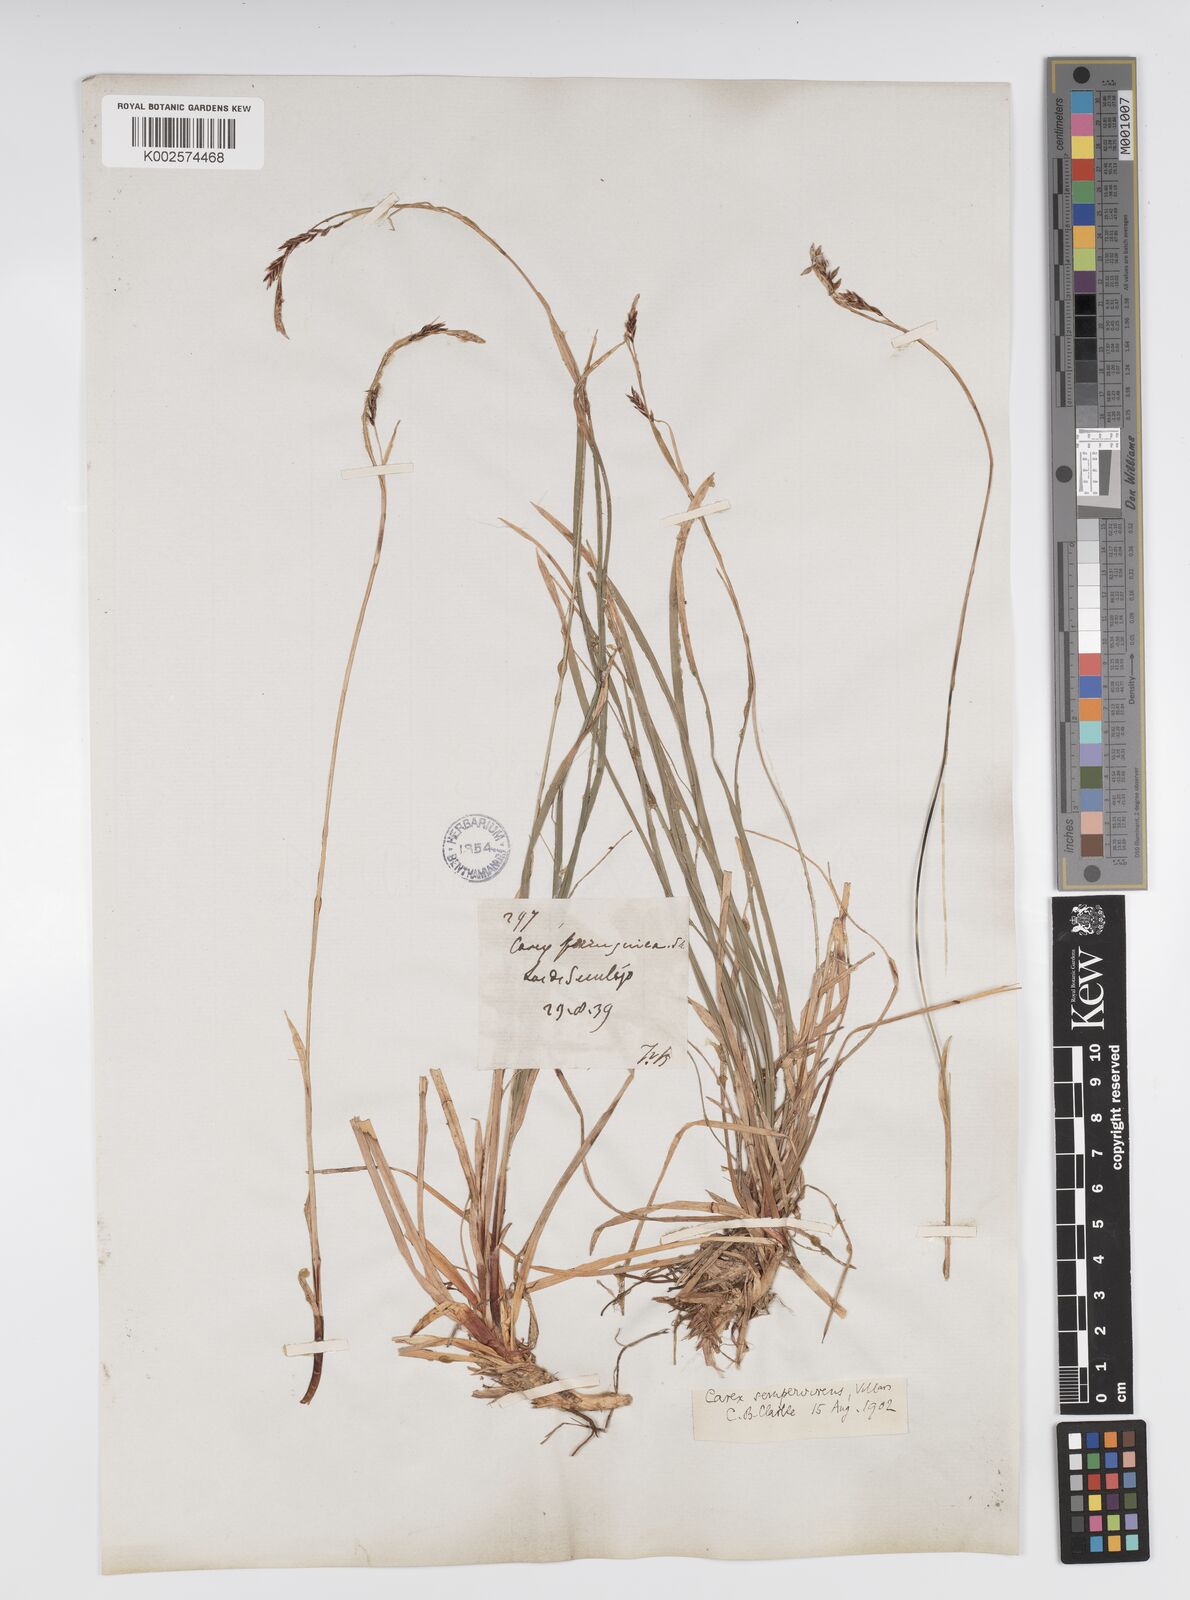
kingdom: Plantae
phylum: Tracheophyta
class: Liliopsida
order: Poales
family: Cyperaceae
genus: Carex
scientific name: Carex sempervirens
